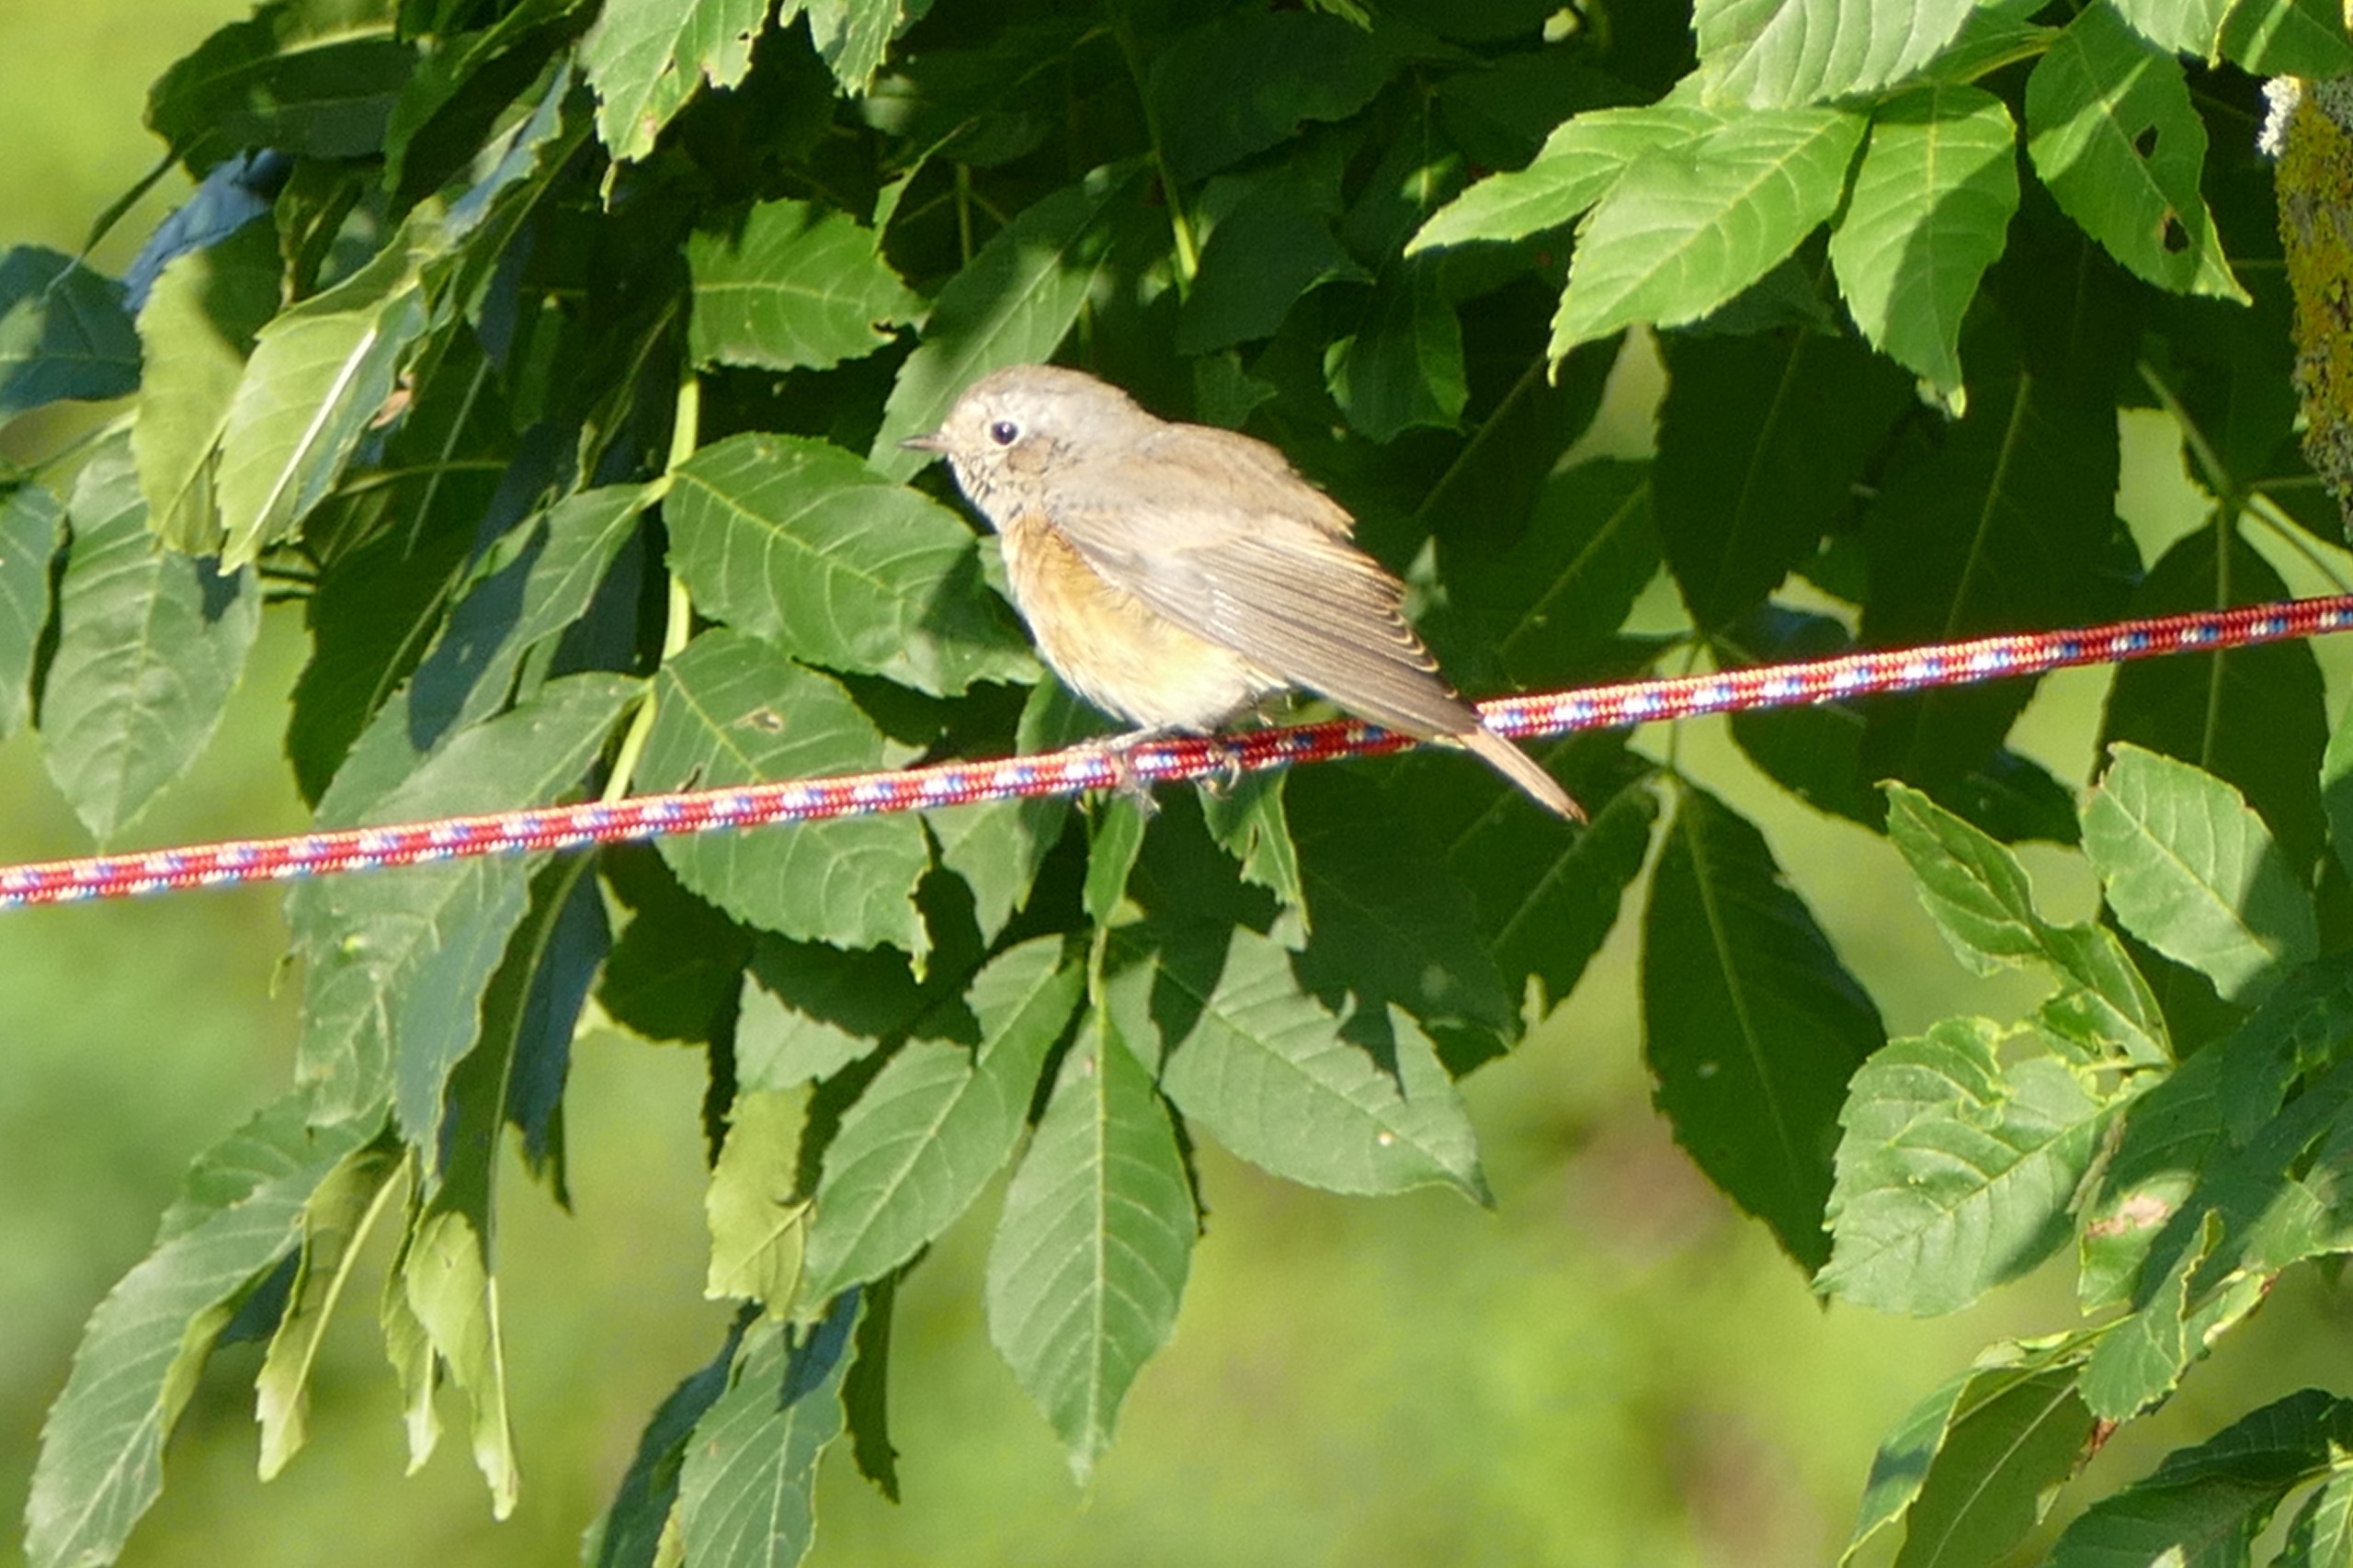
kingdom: Animalia
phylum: Chordata
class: Aves
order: Passeriformes
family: Muscicapidae
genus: Phoenicurus
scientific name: Phoenicurus phoenicurus
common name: Rødstjert
